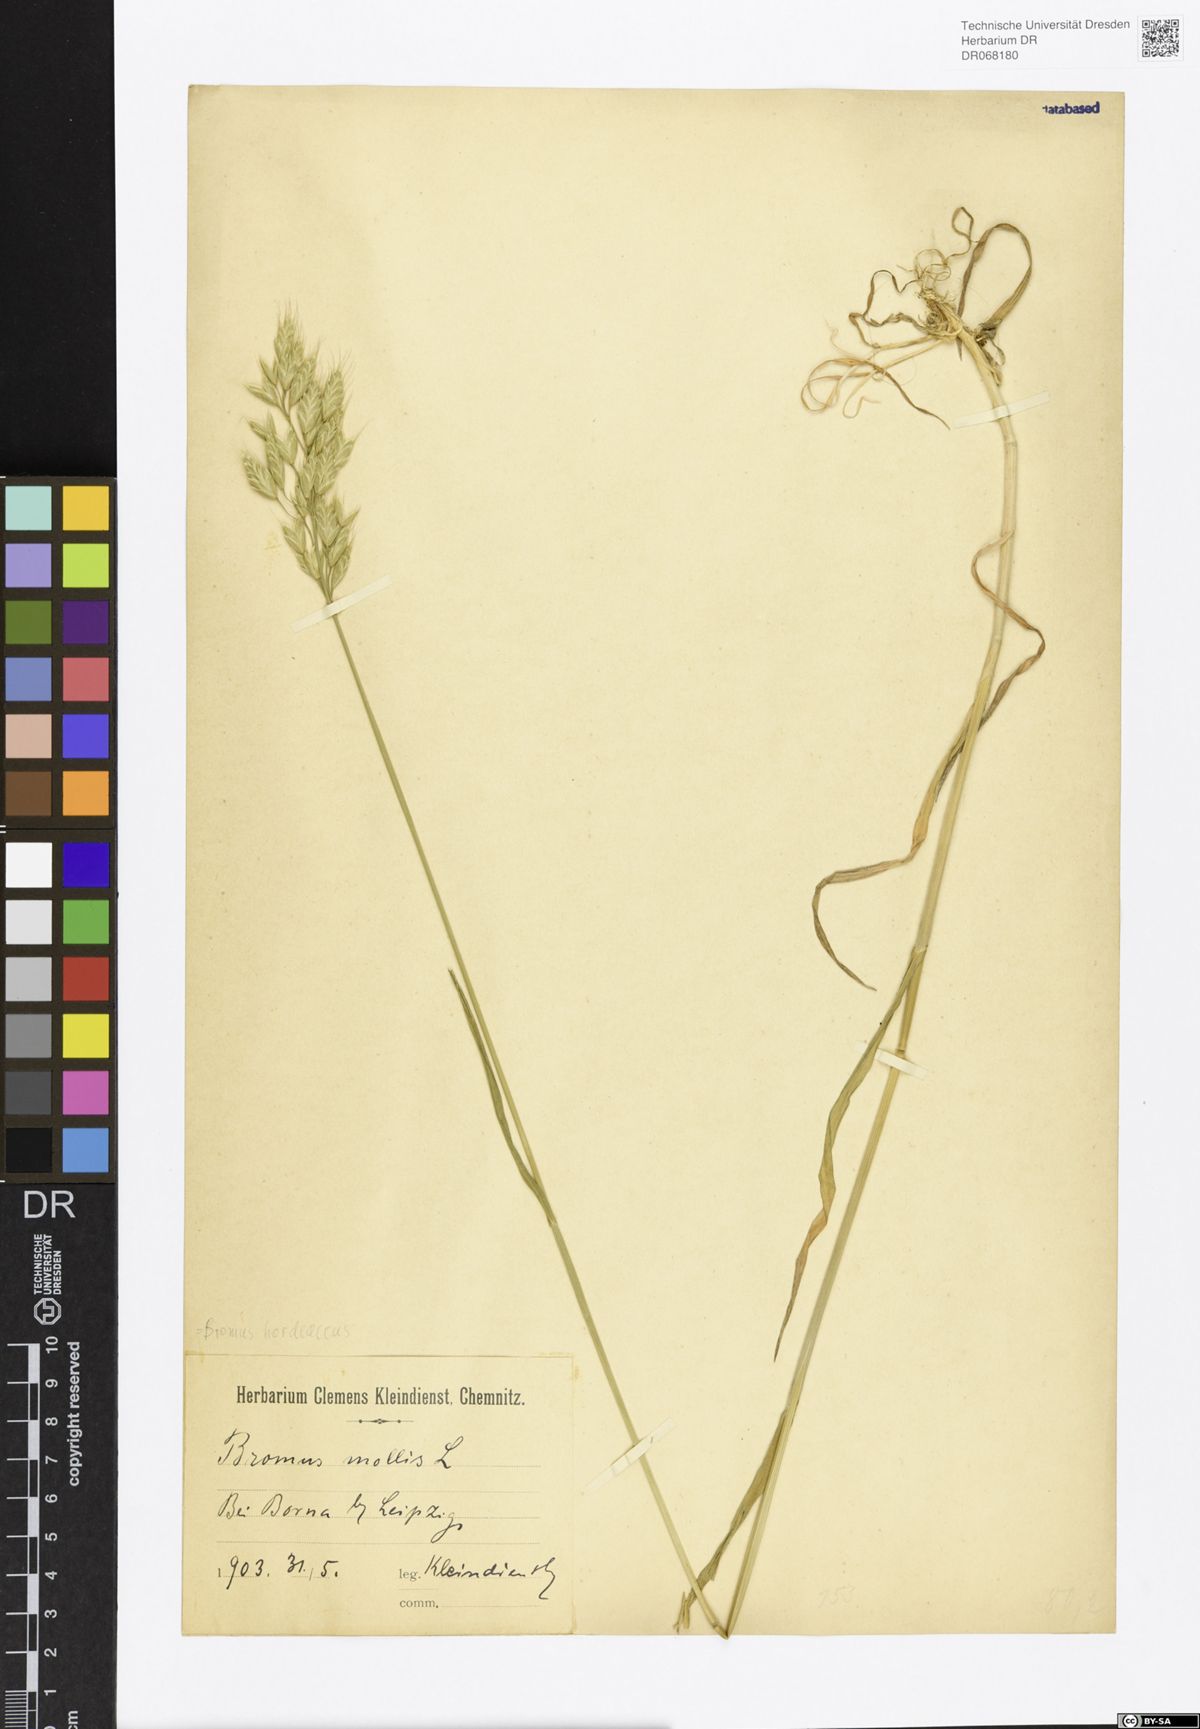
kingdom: Plantae
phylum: Tracheophyta
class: Liliopsida
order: Poales
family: Poaceae
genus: Bromus
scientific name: Bromus hordeaceus
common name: Soft brome
